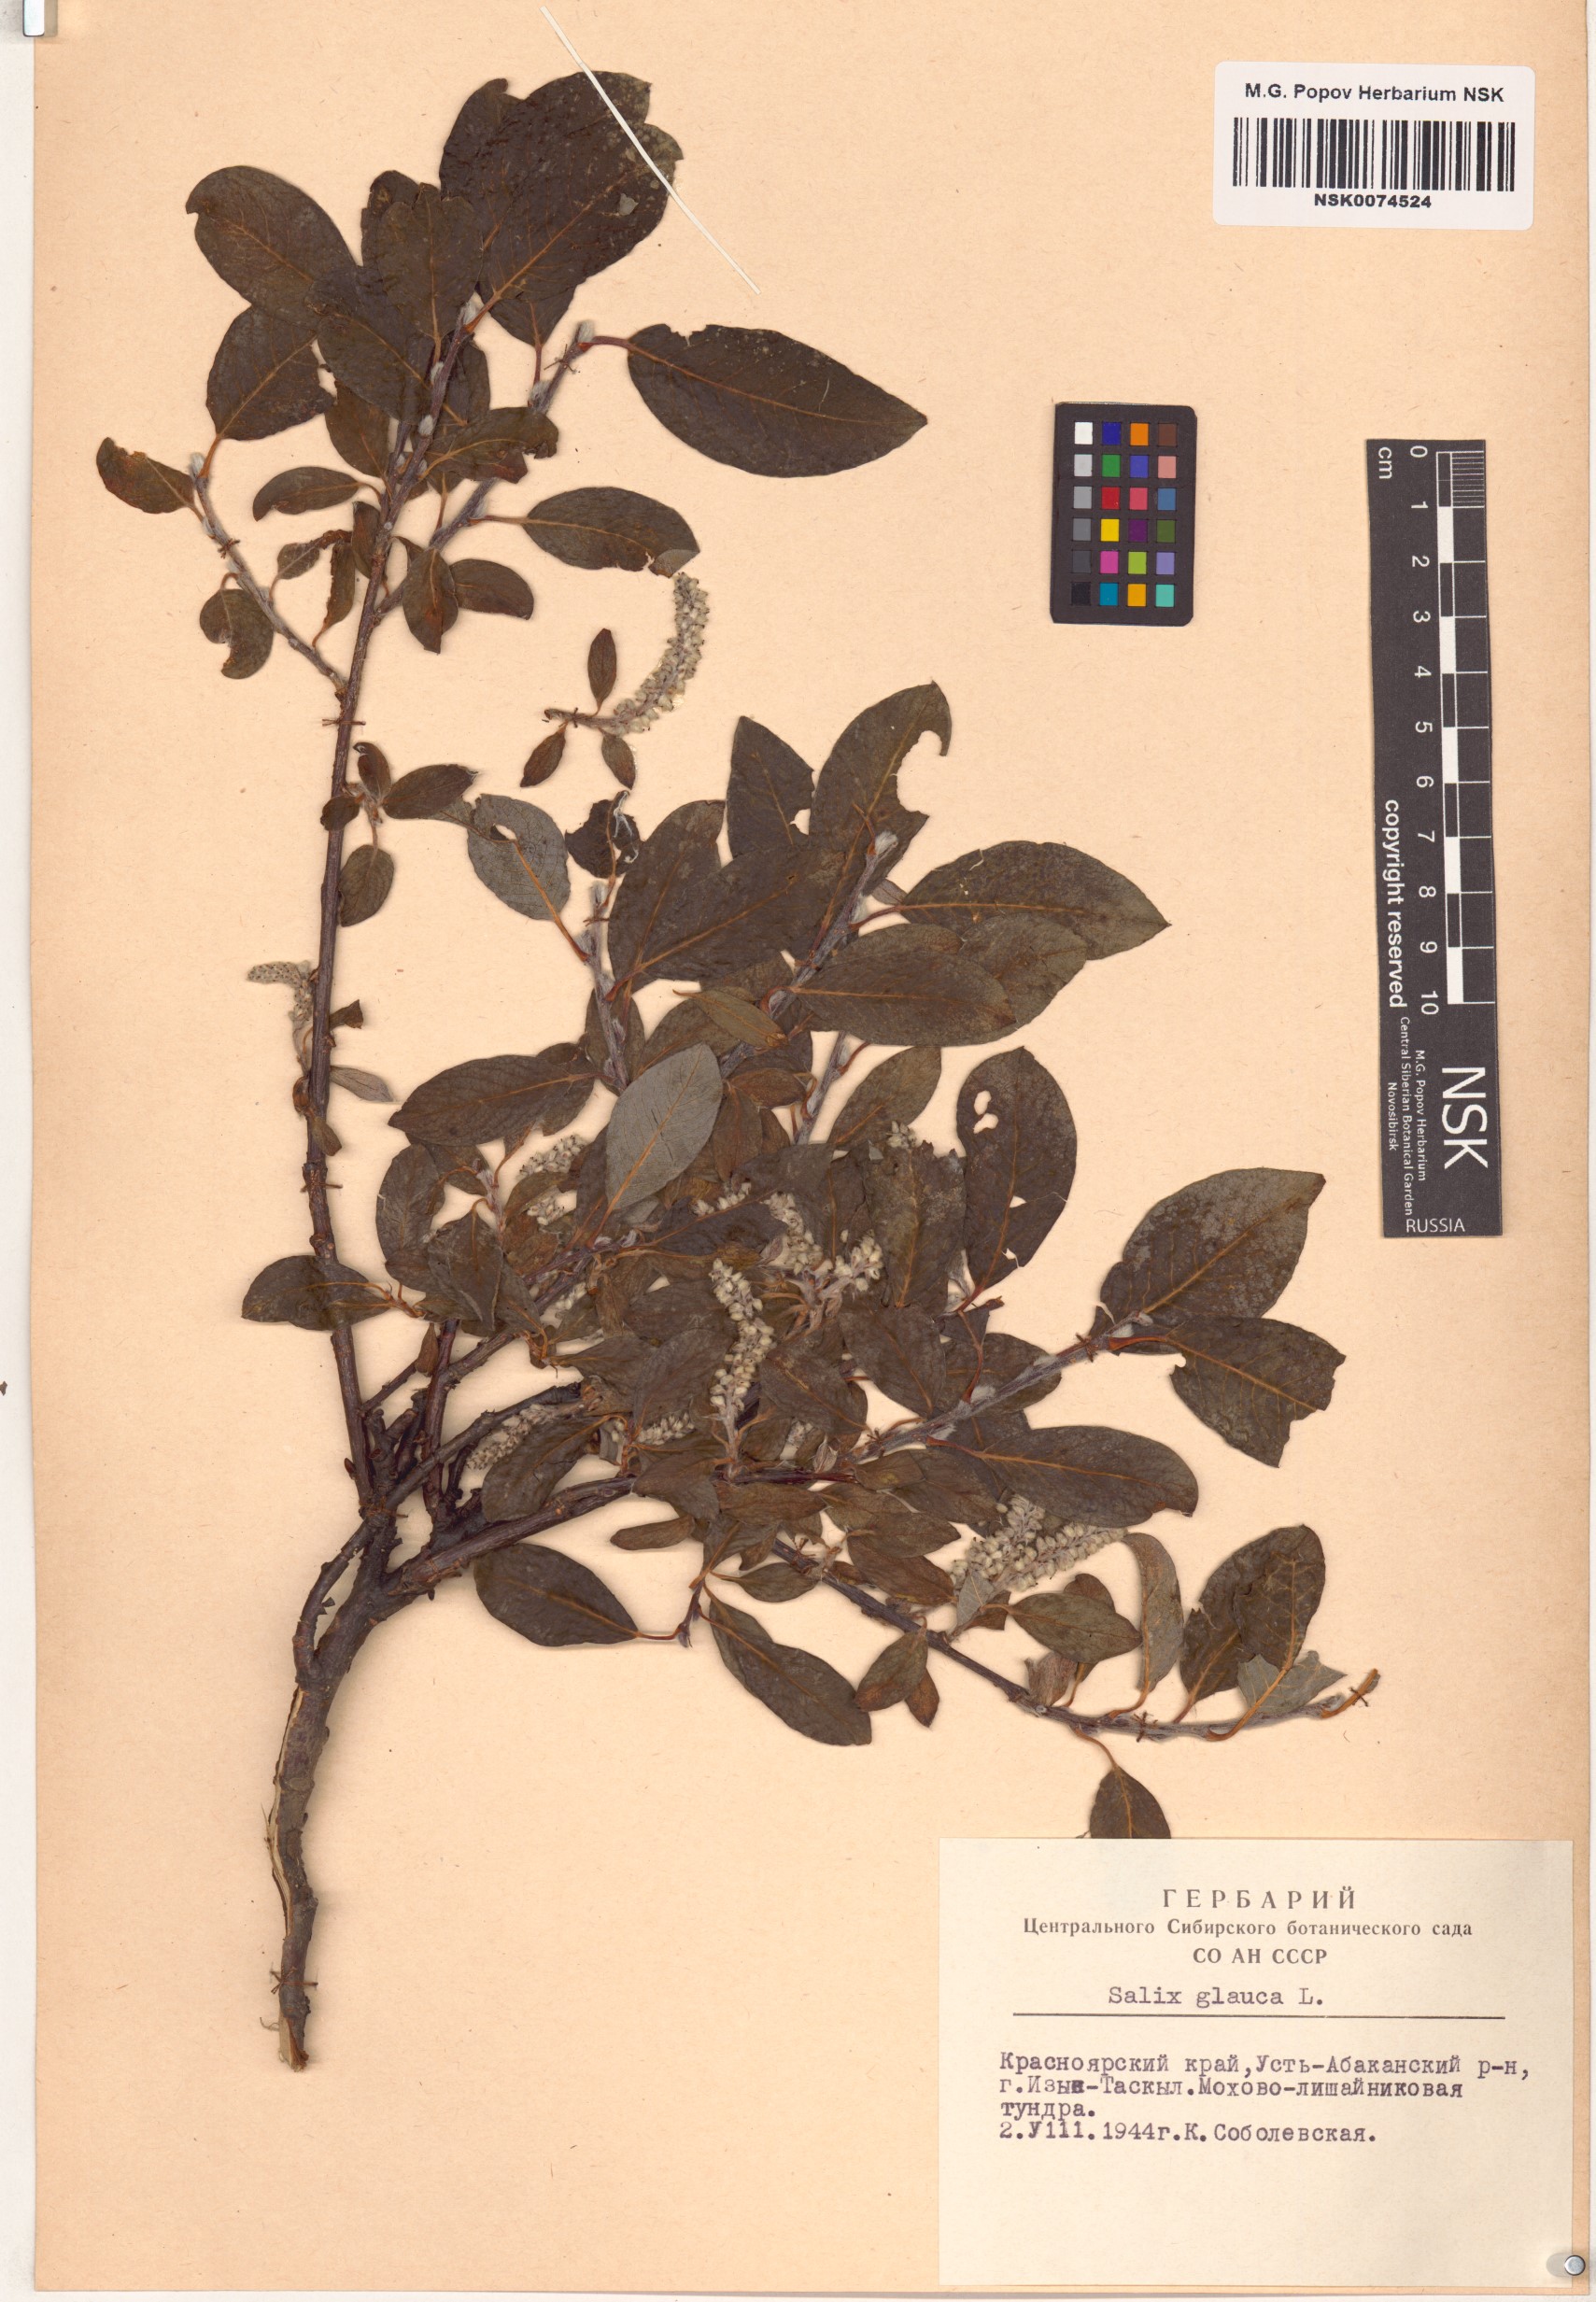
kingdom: Plantae
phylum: Tracheophyta
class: Magnoliopsida
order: Malpighiales
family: Salicaceae
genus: Salix
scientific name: Salix glauca
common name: Glaucous willow
